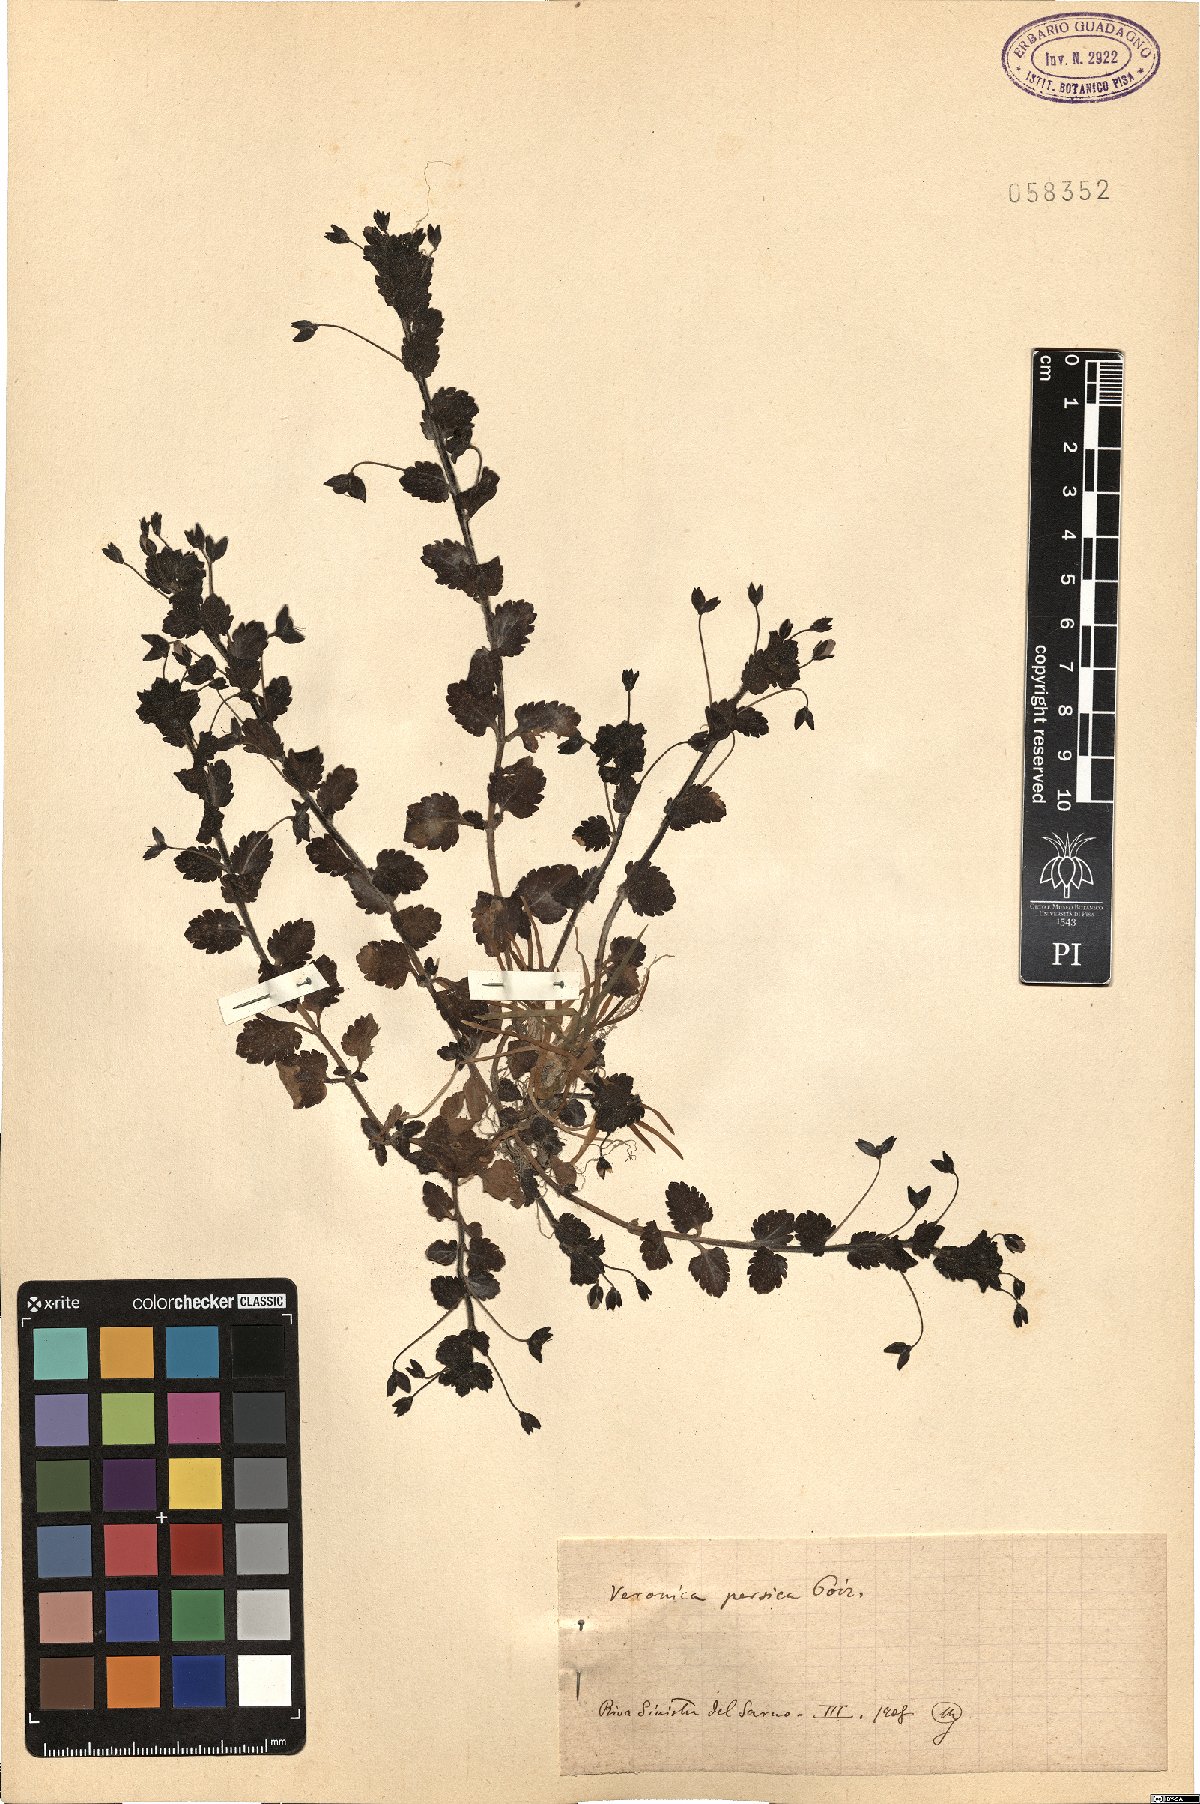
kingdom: Plantae
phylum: Tracheophyta
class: Magnoliopsida
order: Lamiales
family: Plantaginaceae
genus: Veronica
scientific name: Veronica persica
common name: Common field-speedwell
